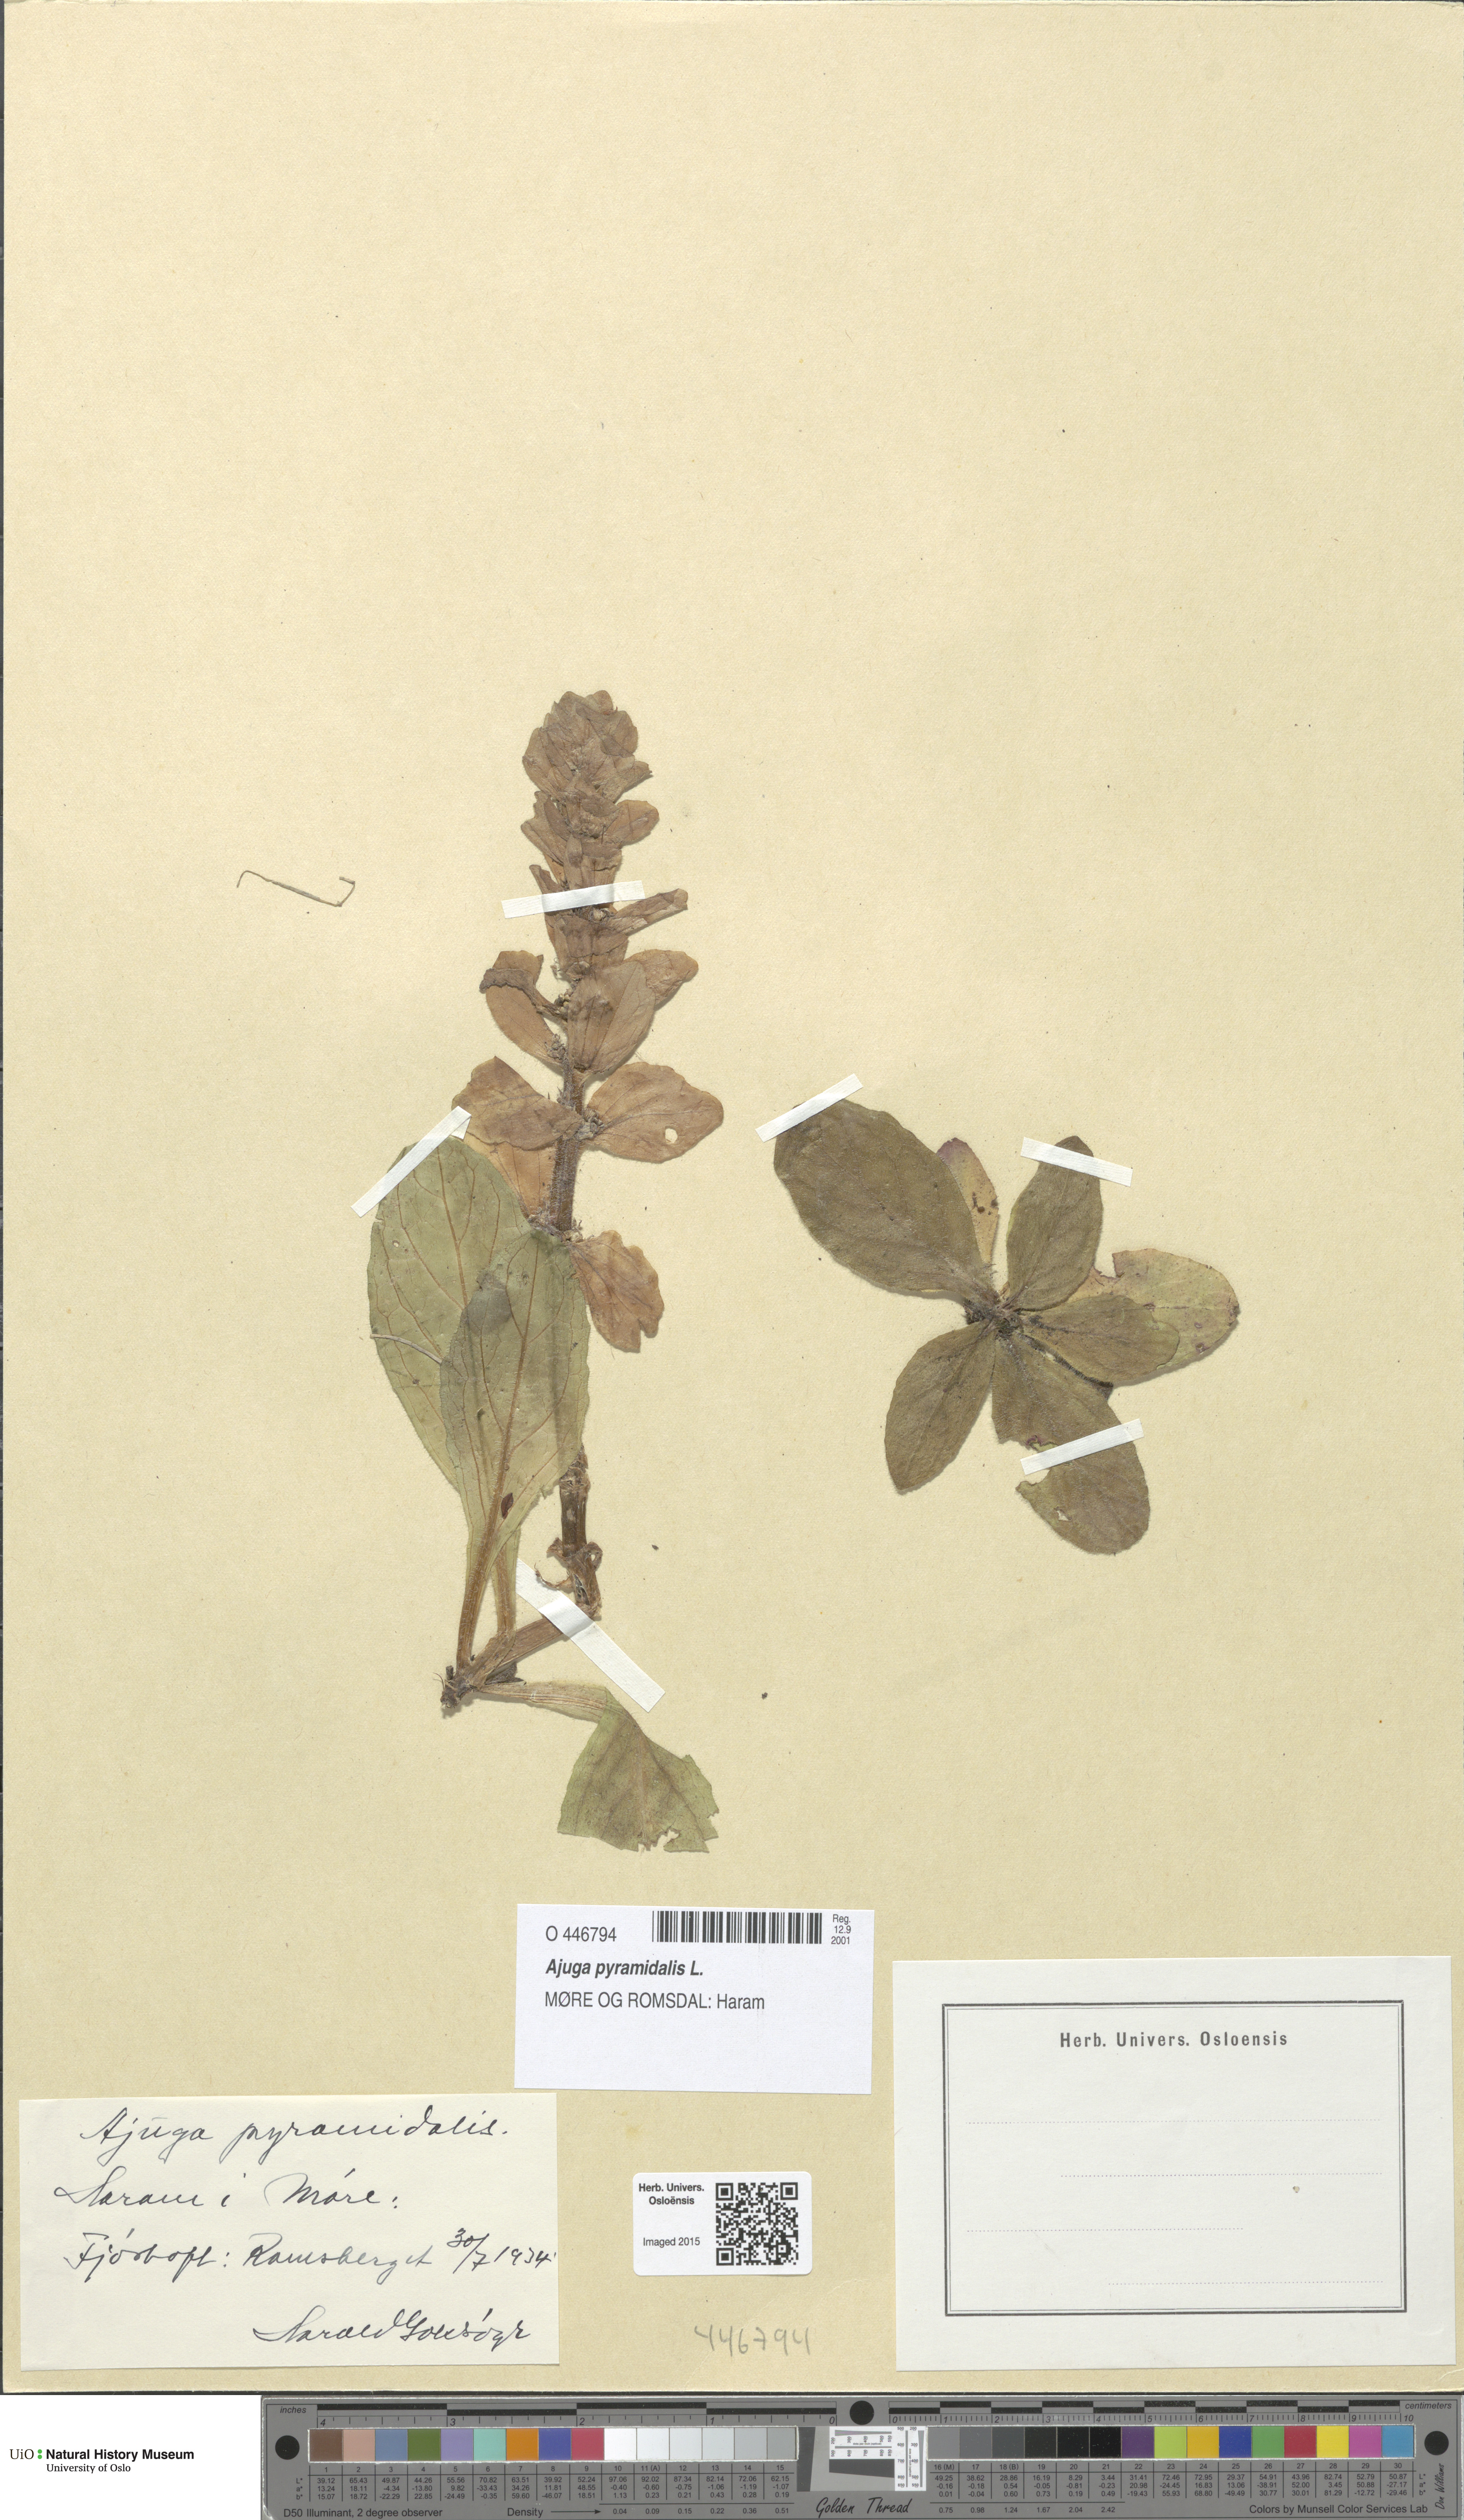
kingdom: Plantae
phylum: Tracheophyta
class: Magnoliopsida
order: Lamiales
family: Lamiaceae
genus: Ajuga
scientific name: Ajuga pyramidalis
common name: Pyramid bugle
